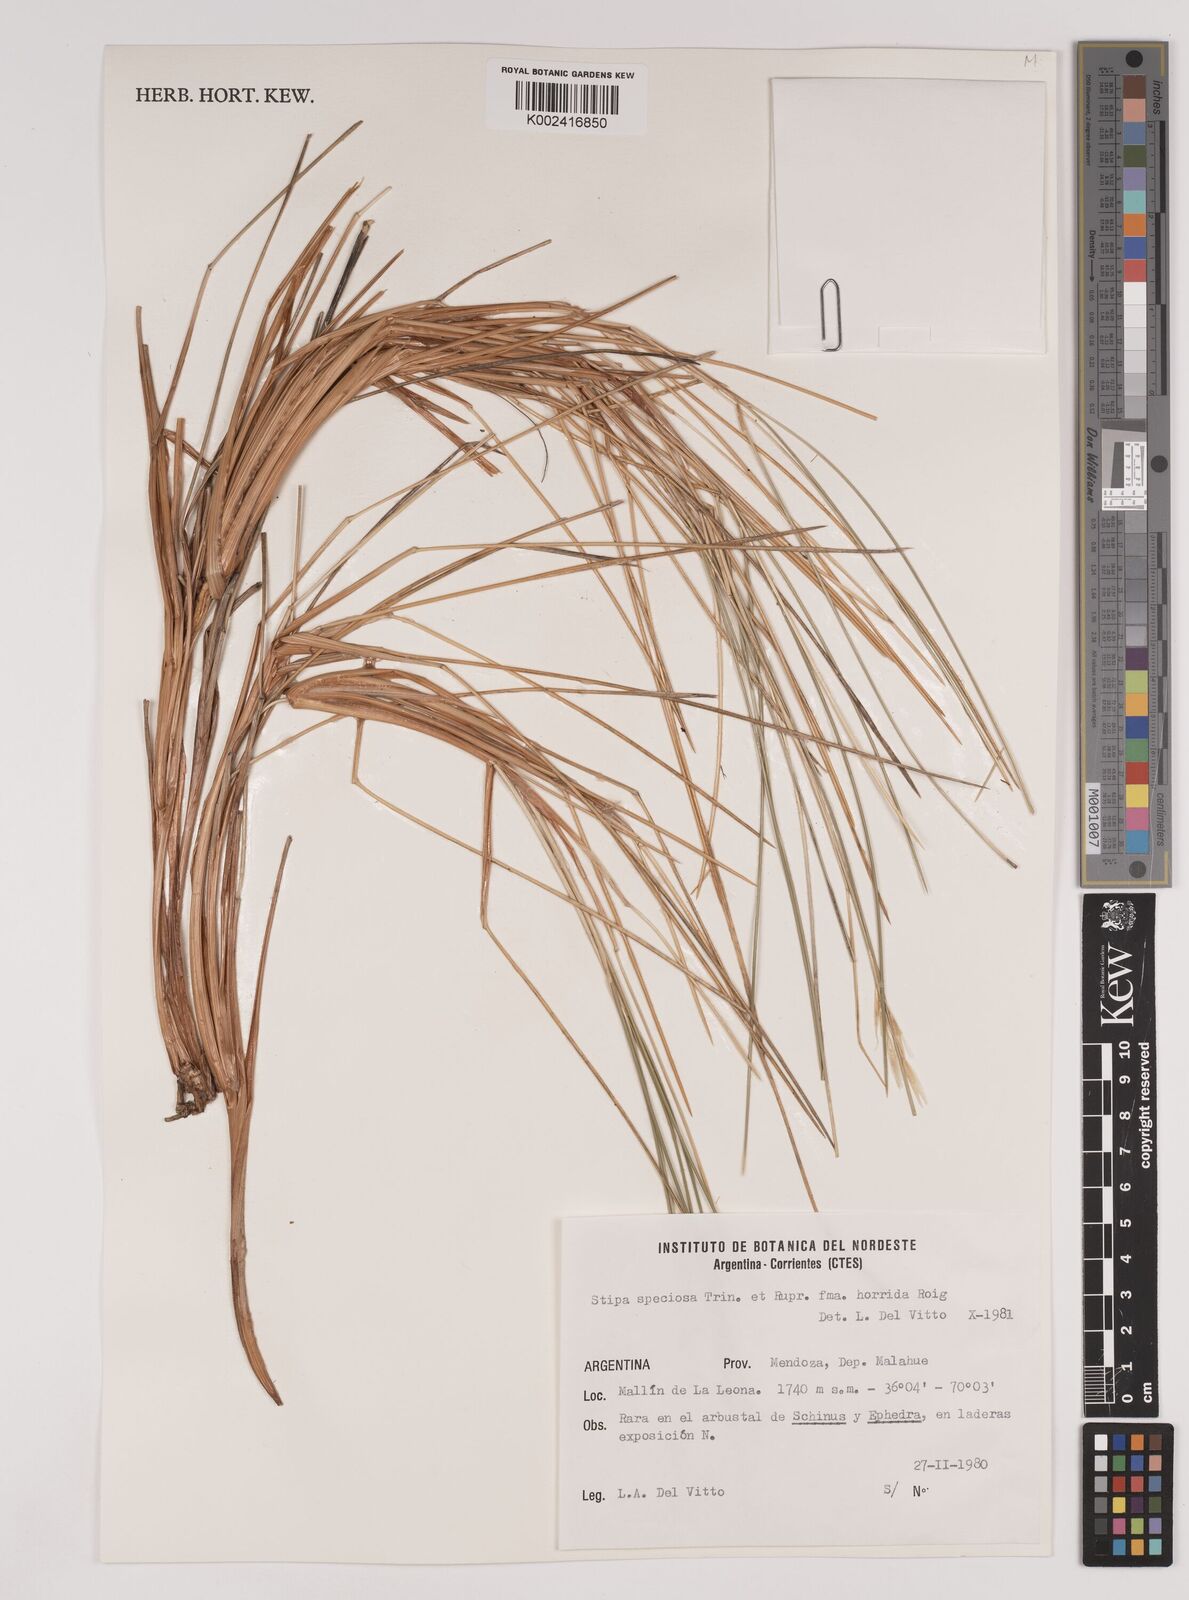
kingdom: Plantae
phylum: Tracheophyta
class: Liliopsida
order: Poales
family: Poaceae
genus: Pappostipa
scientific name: Pappostipa speciosa
